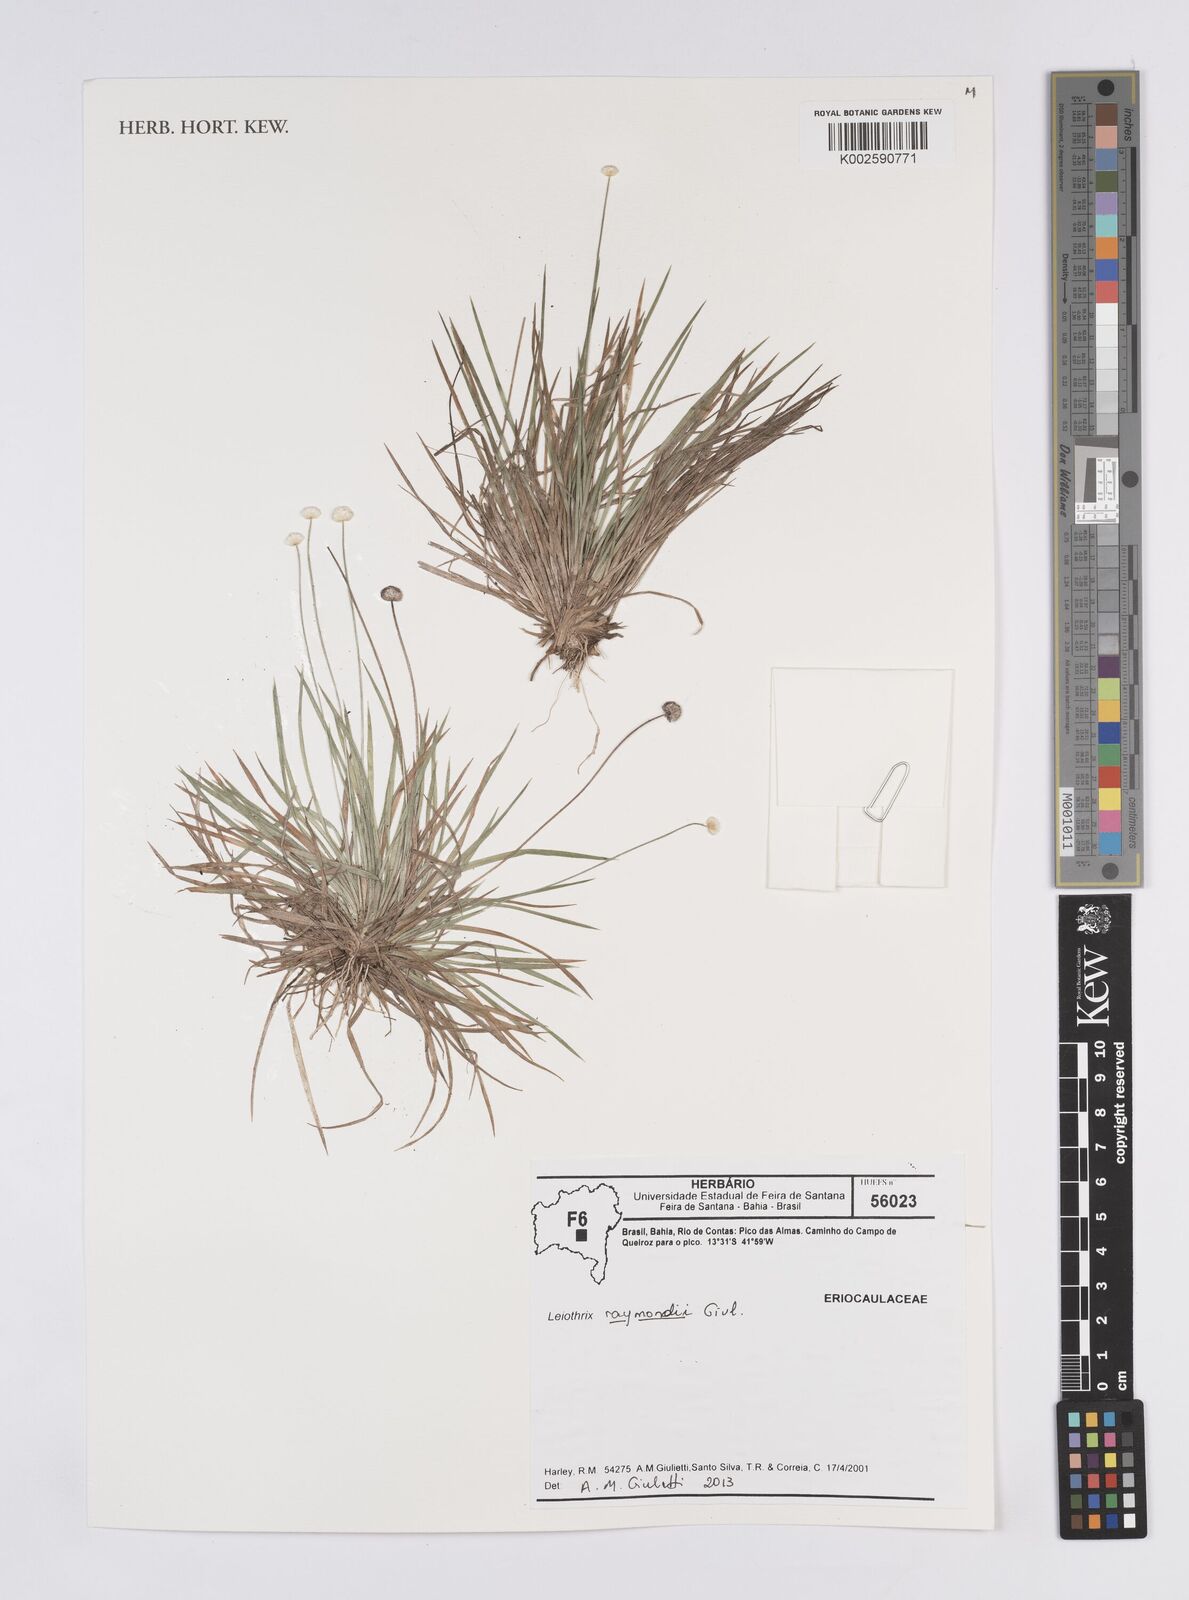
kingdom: Plantae
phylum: Tracheophyta
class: Liliopsida
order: Poales
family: Eriocaulaceae
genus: Leiothrix
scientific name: Leiothrix raymondii
